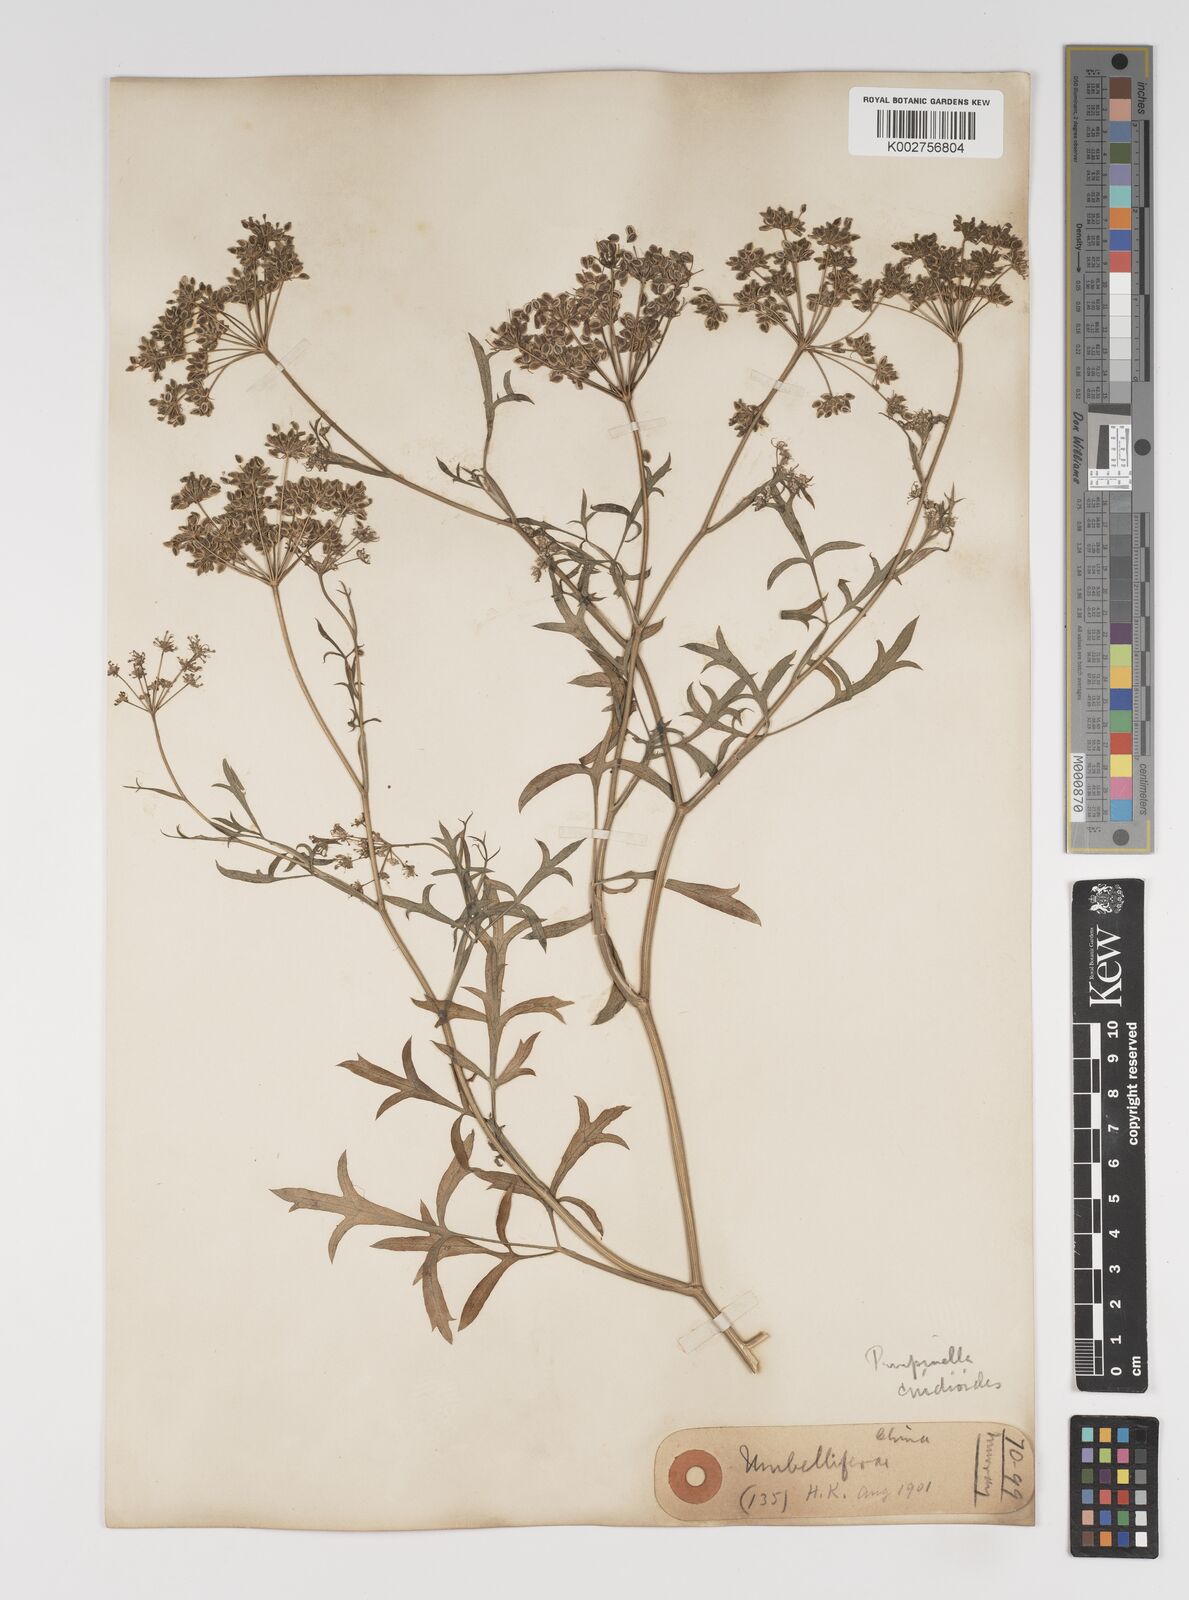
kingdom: Plantae
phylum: Tracheophyta
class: Magnoliopsida
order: Apiales
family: Apiaceae
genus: Pimpinella
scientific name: Pimpinella major
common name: Greater burnet-saxifrage
